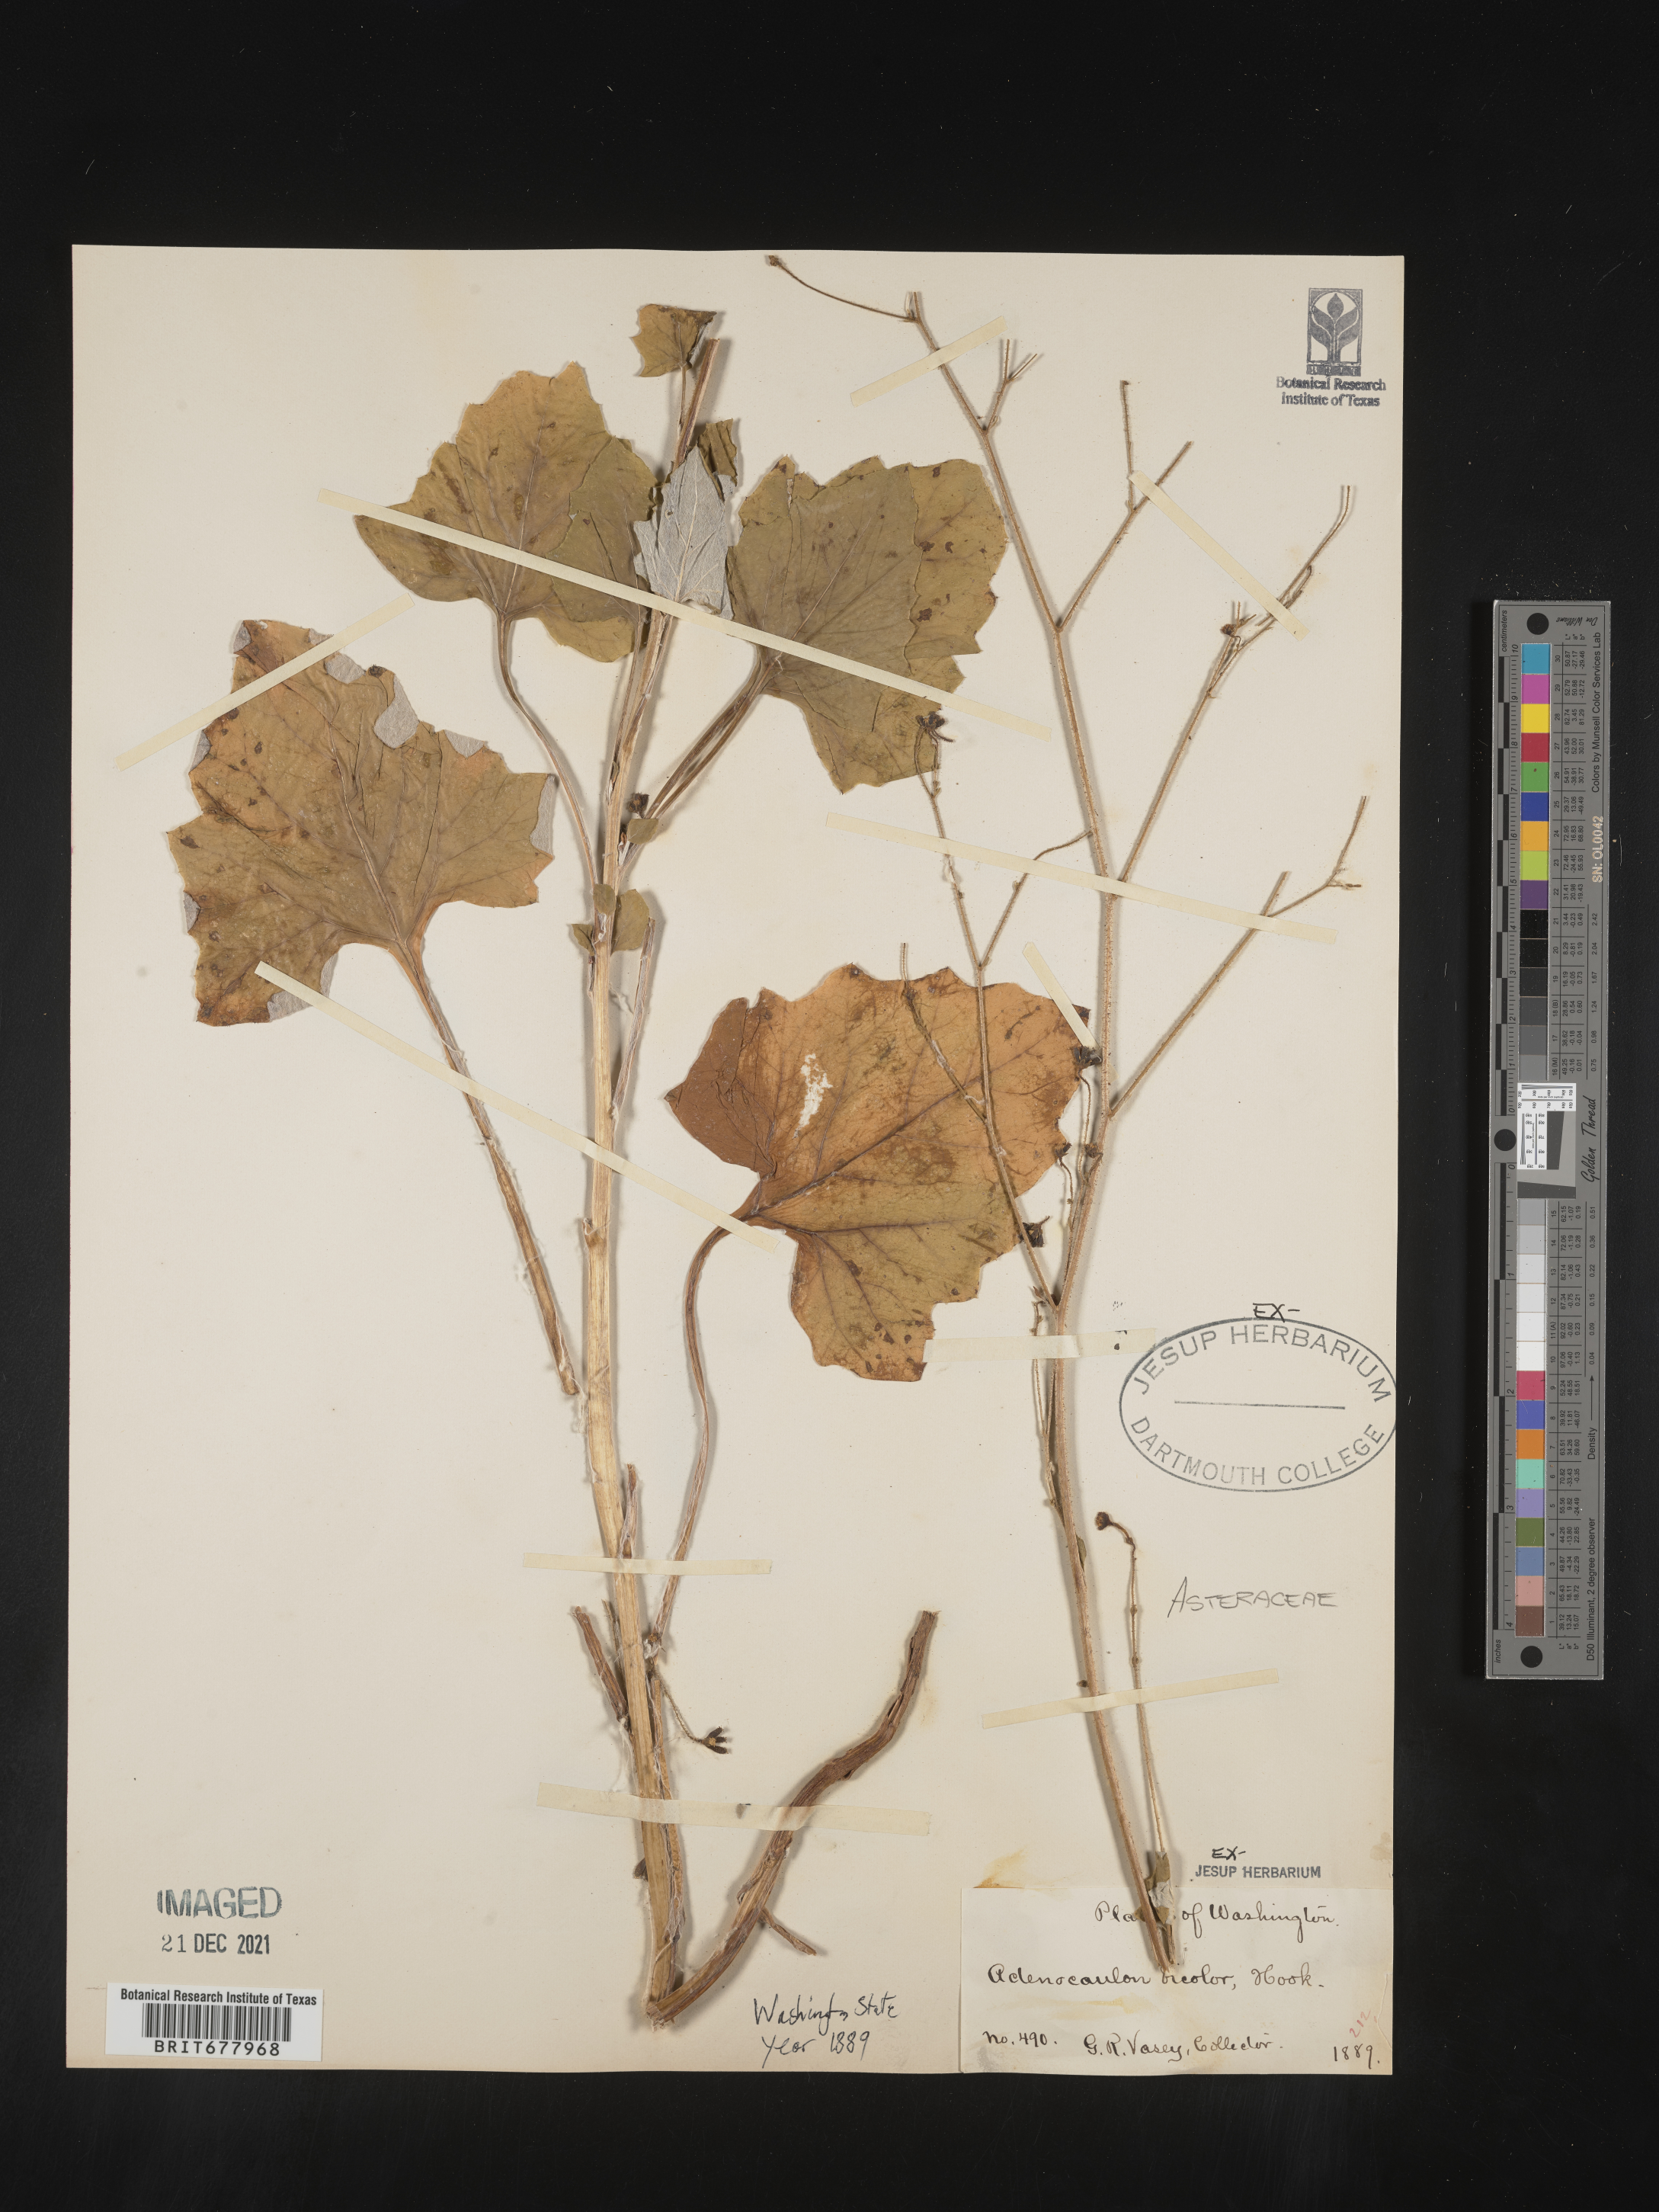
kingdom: Plantae
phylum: Tracheophyta
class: Magnoliopsida
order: Asterales
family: Asteraceae
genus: Adenocaulon
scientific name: Adenocaulon
